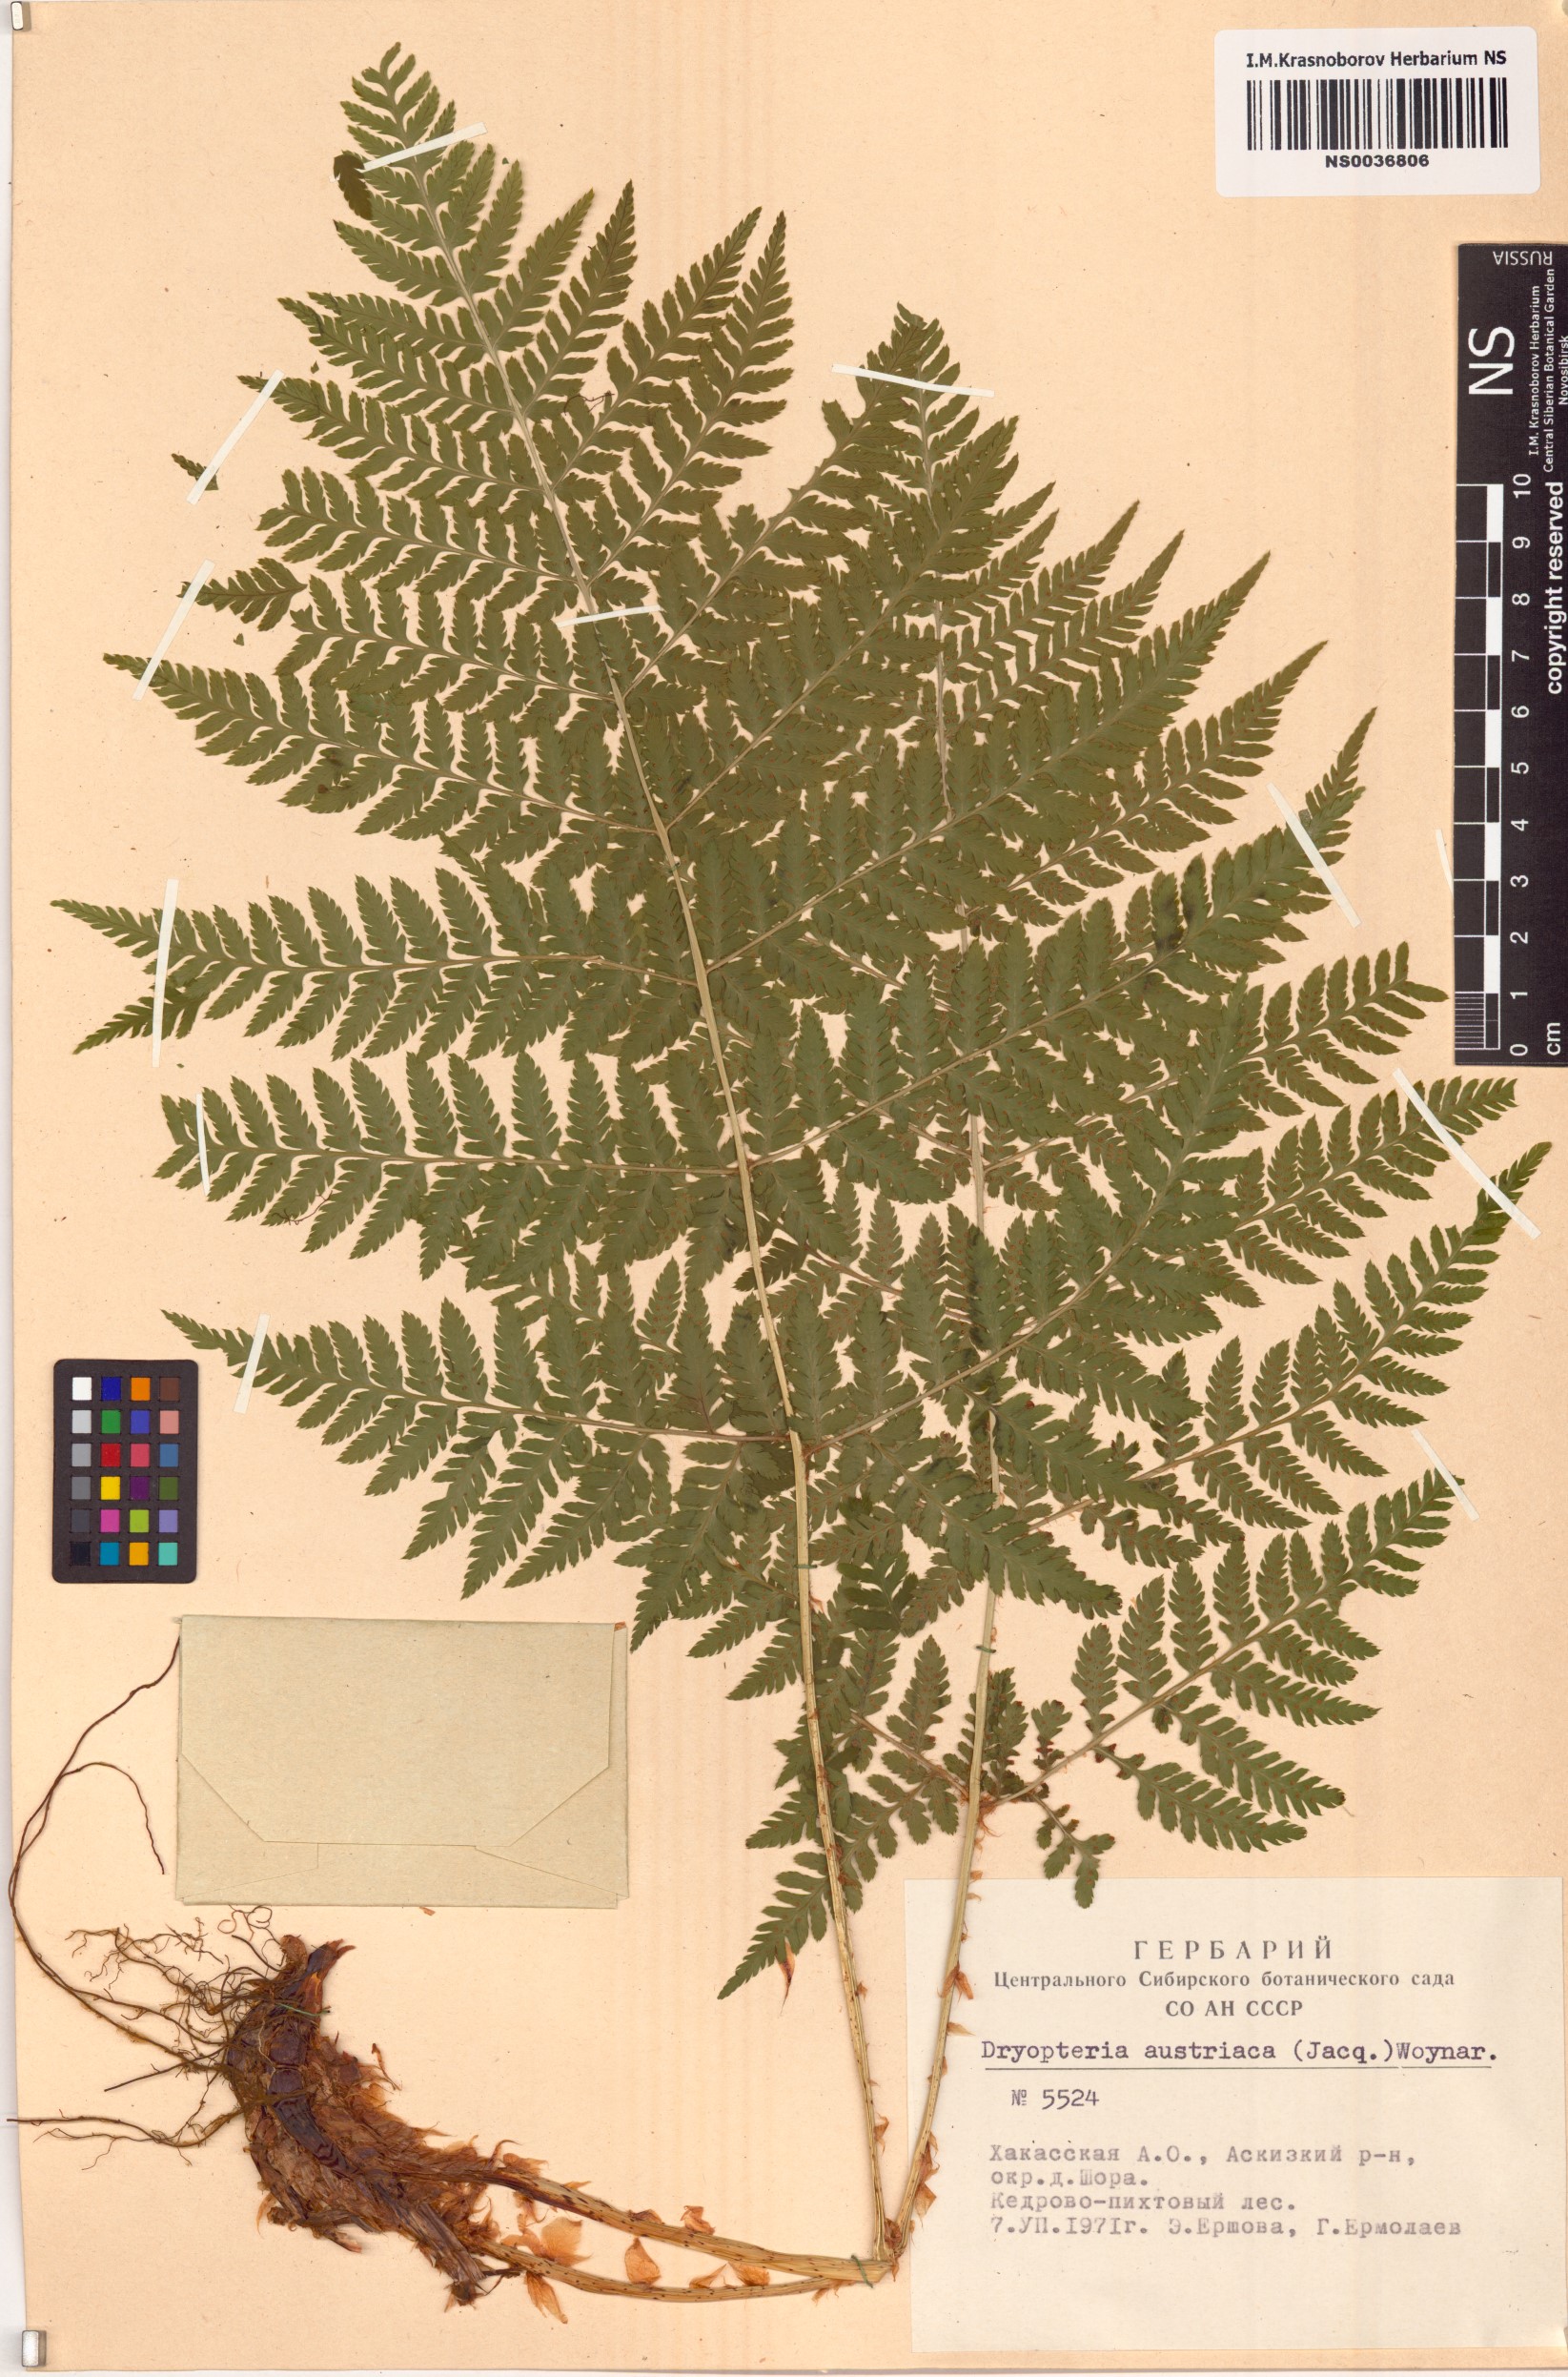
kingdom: Plantae
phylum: Tracheophyta
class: Polypodiopsida
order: Polypodiales
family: Dryopteridaceae
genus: Dryopteris
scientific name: Dryopteris dilatata
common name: Broad buckler-fern
